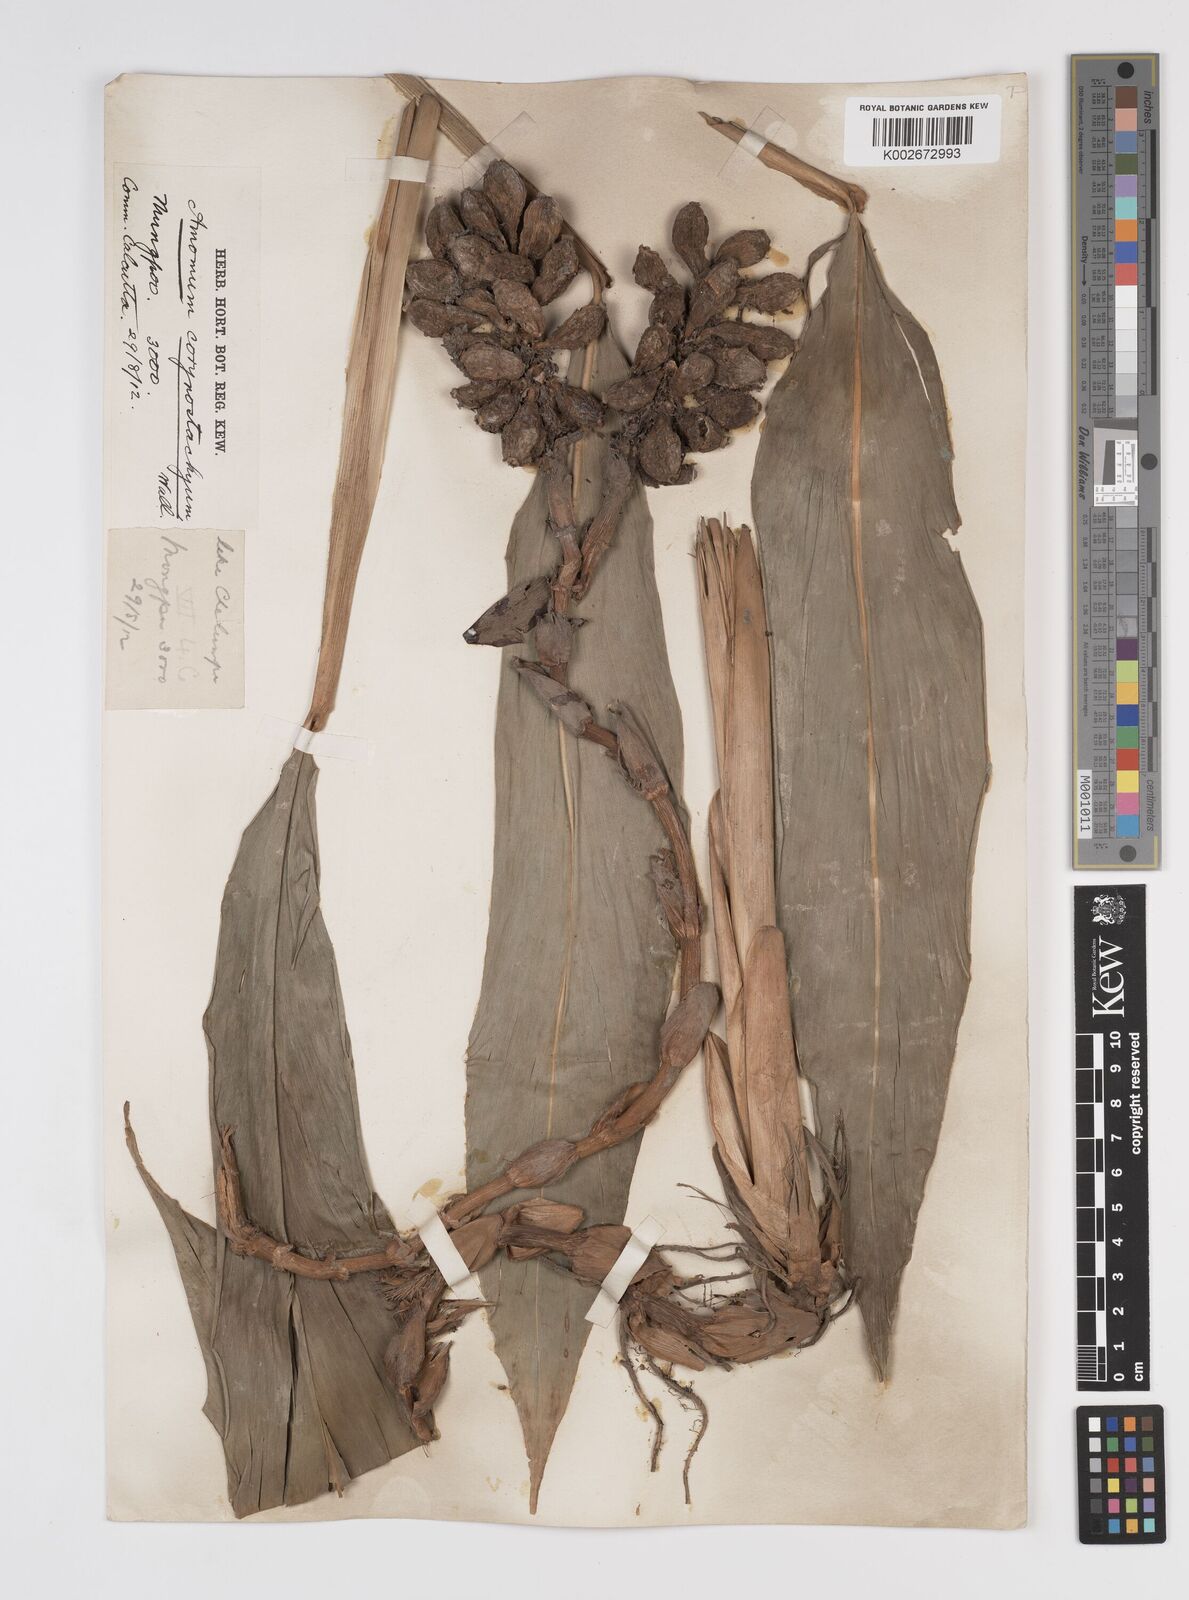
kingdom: Plantae
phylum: Tracheophyta
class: Liliopsida
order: Zingiberales
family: Zingiberaceae
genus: Meistera
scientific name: Meistera koenigii
